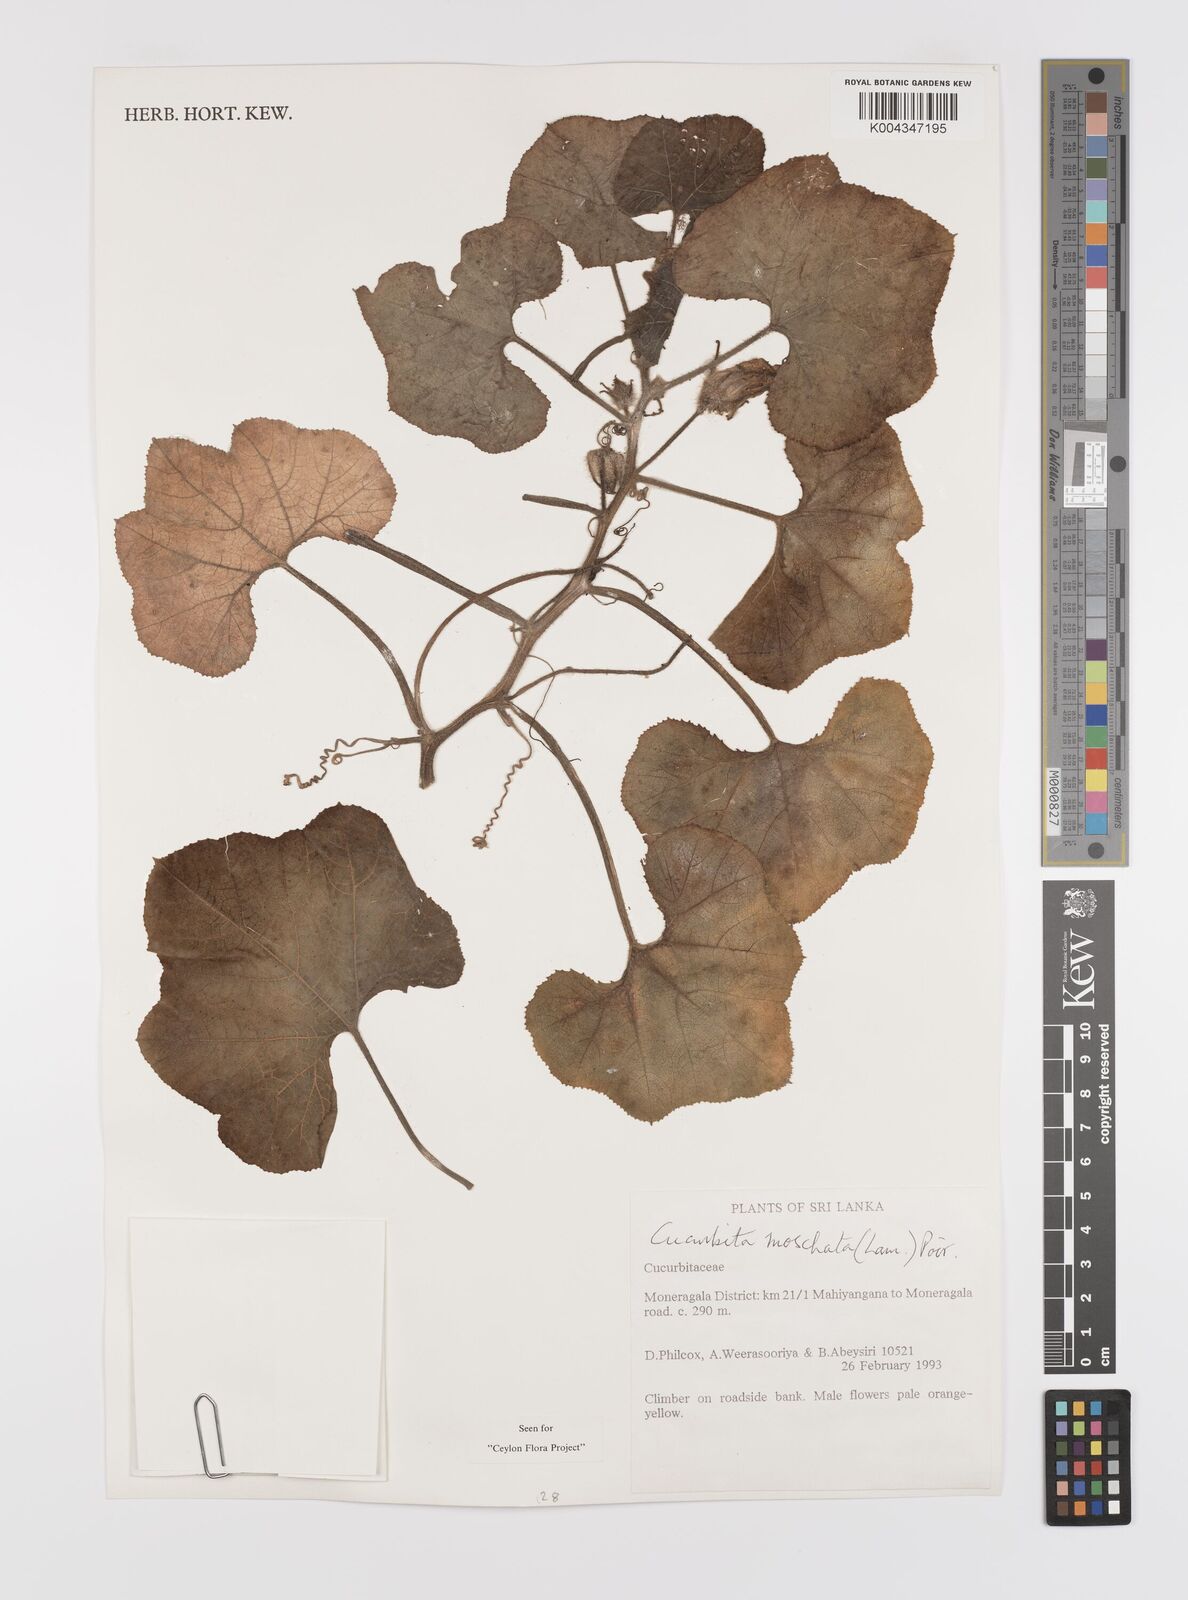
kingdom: Plantae
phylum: Tracheophyta
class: Magnoliopsida
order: Cucurbitales
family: Cucurbitaceae
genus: Cucurbita
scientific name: Cucurbita moschata
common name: Squash / pumpkin
